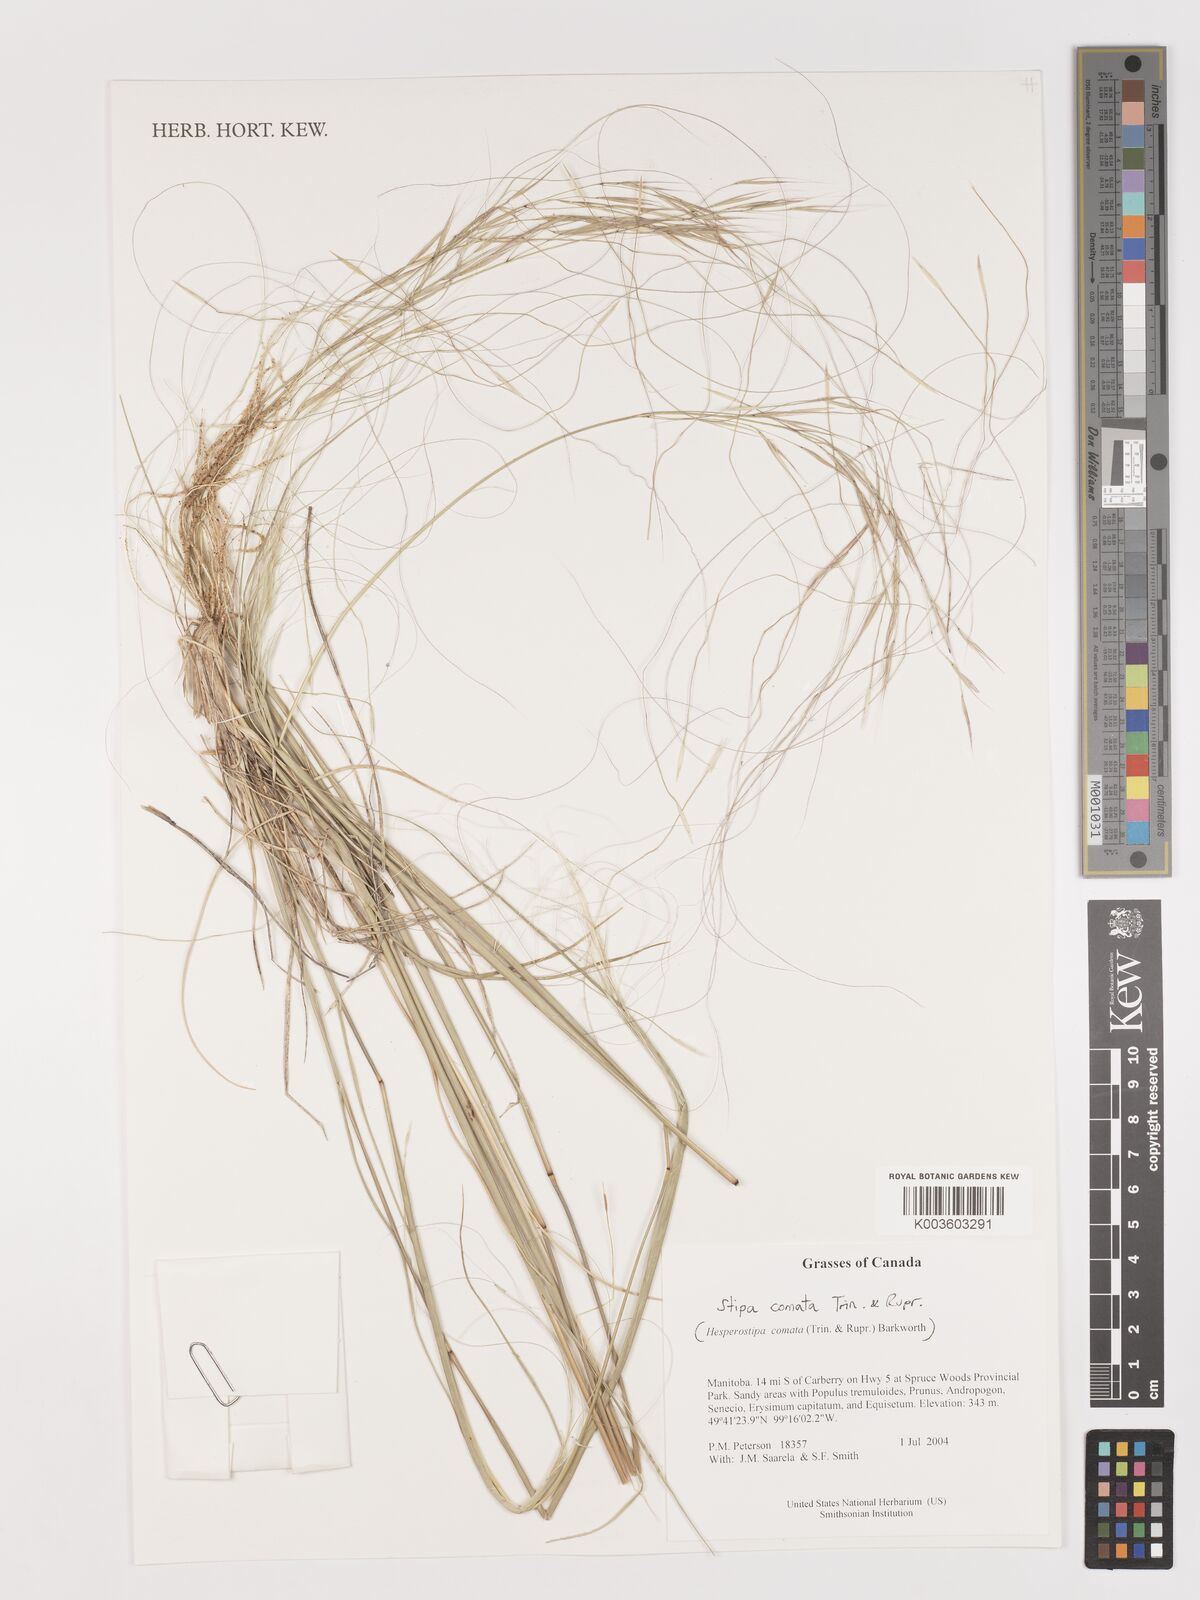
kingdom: Plantae
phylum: Tracheophyta
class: Liliopsida
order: Poales
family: Poaceae
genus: Stipa
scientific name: Stipa
